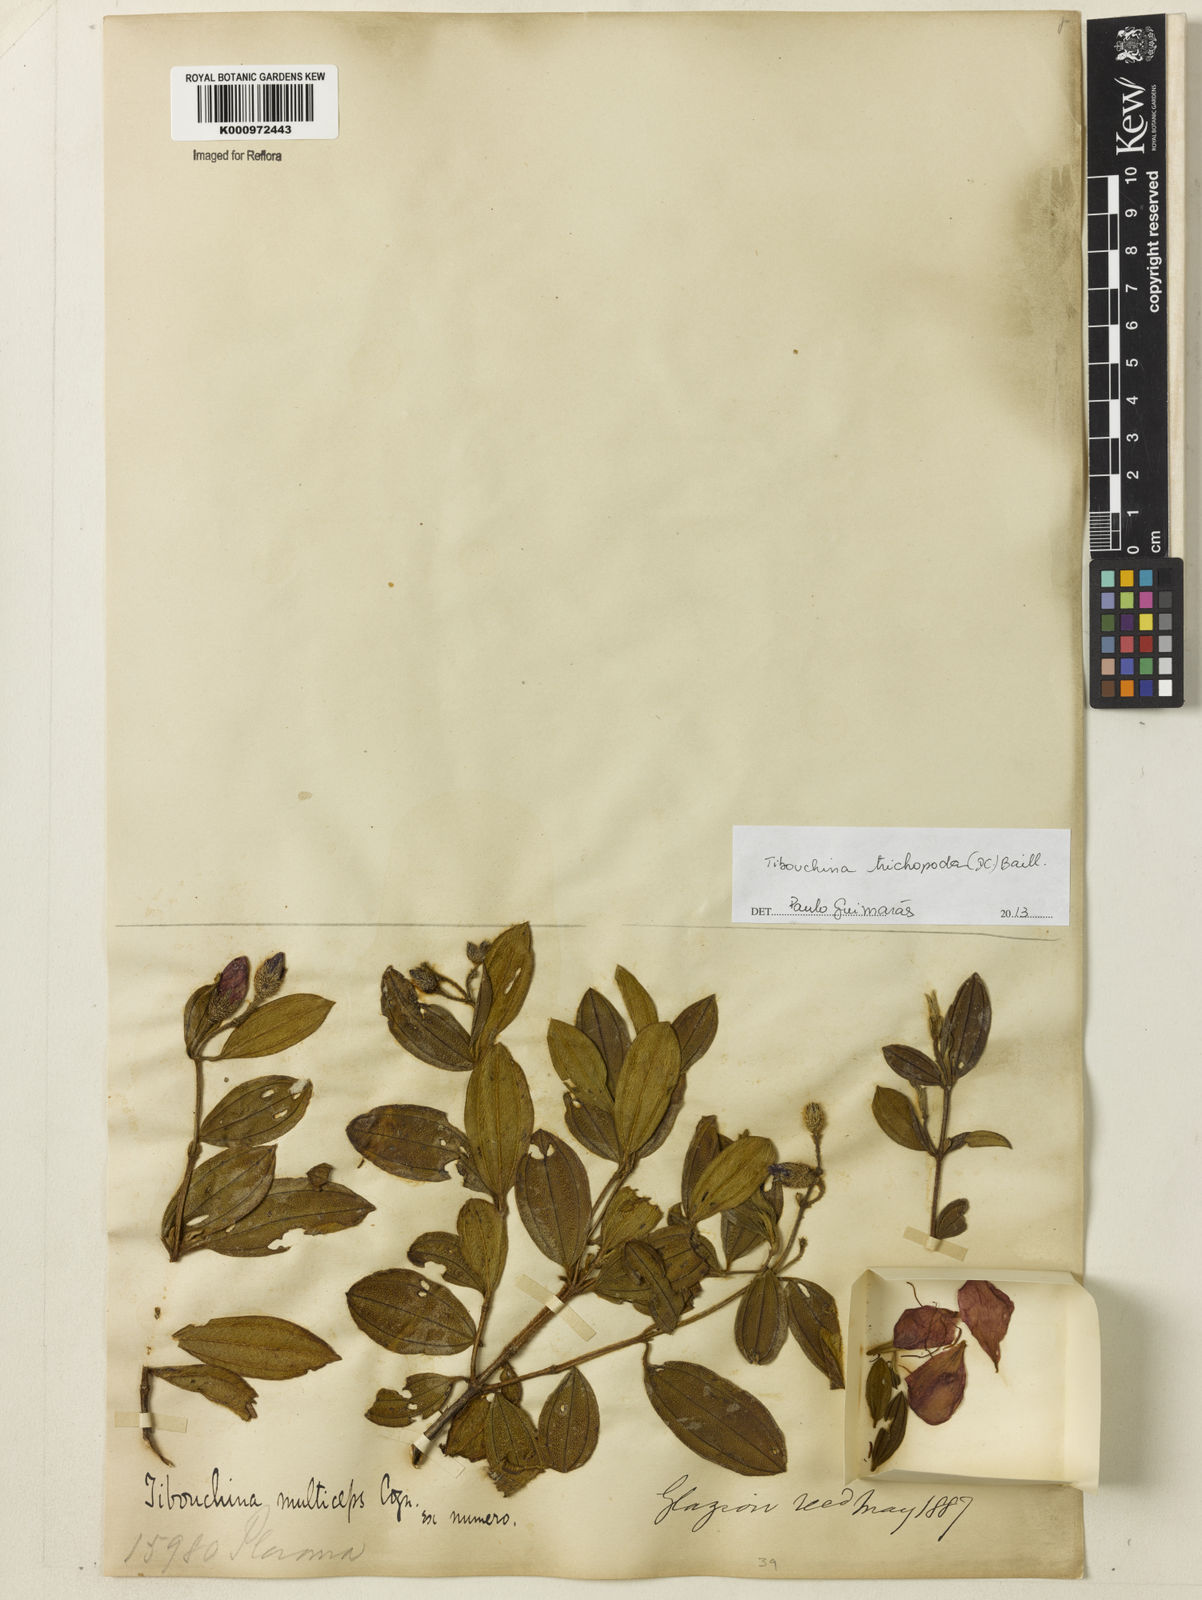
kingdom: Plantae
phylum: Tracheophyta
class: Magnoliopsida
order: Myrtales
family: Melastomataceae
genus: Pleroma
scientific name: Pleroma trichopodum
